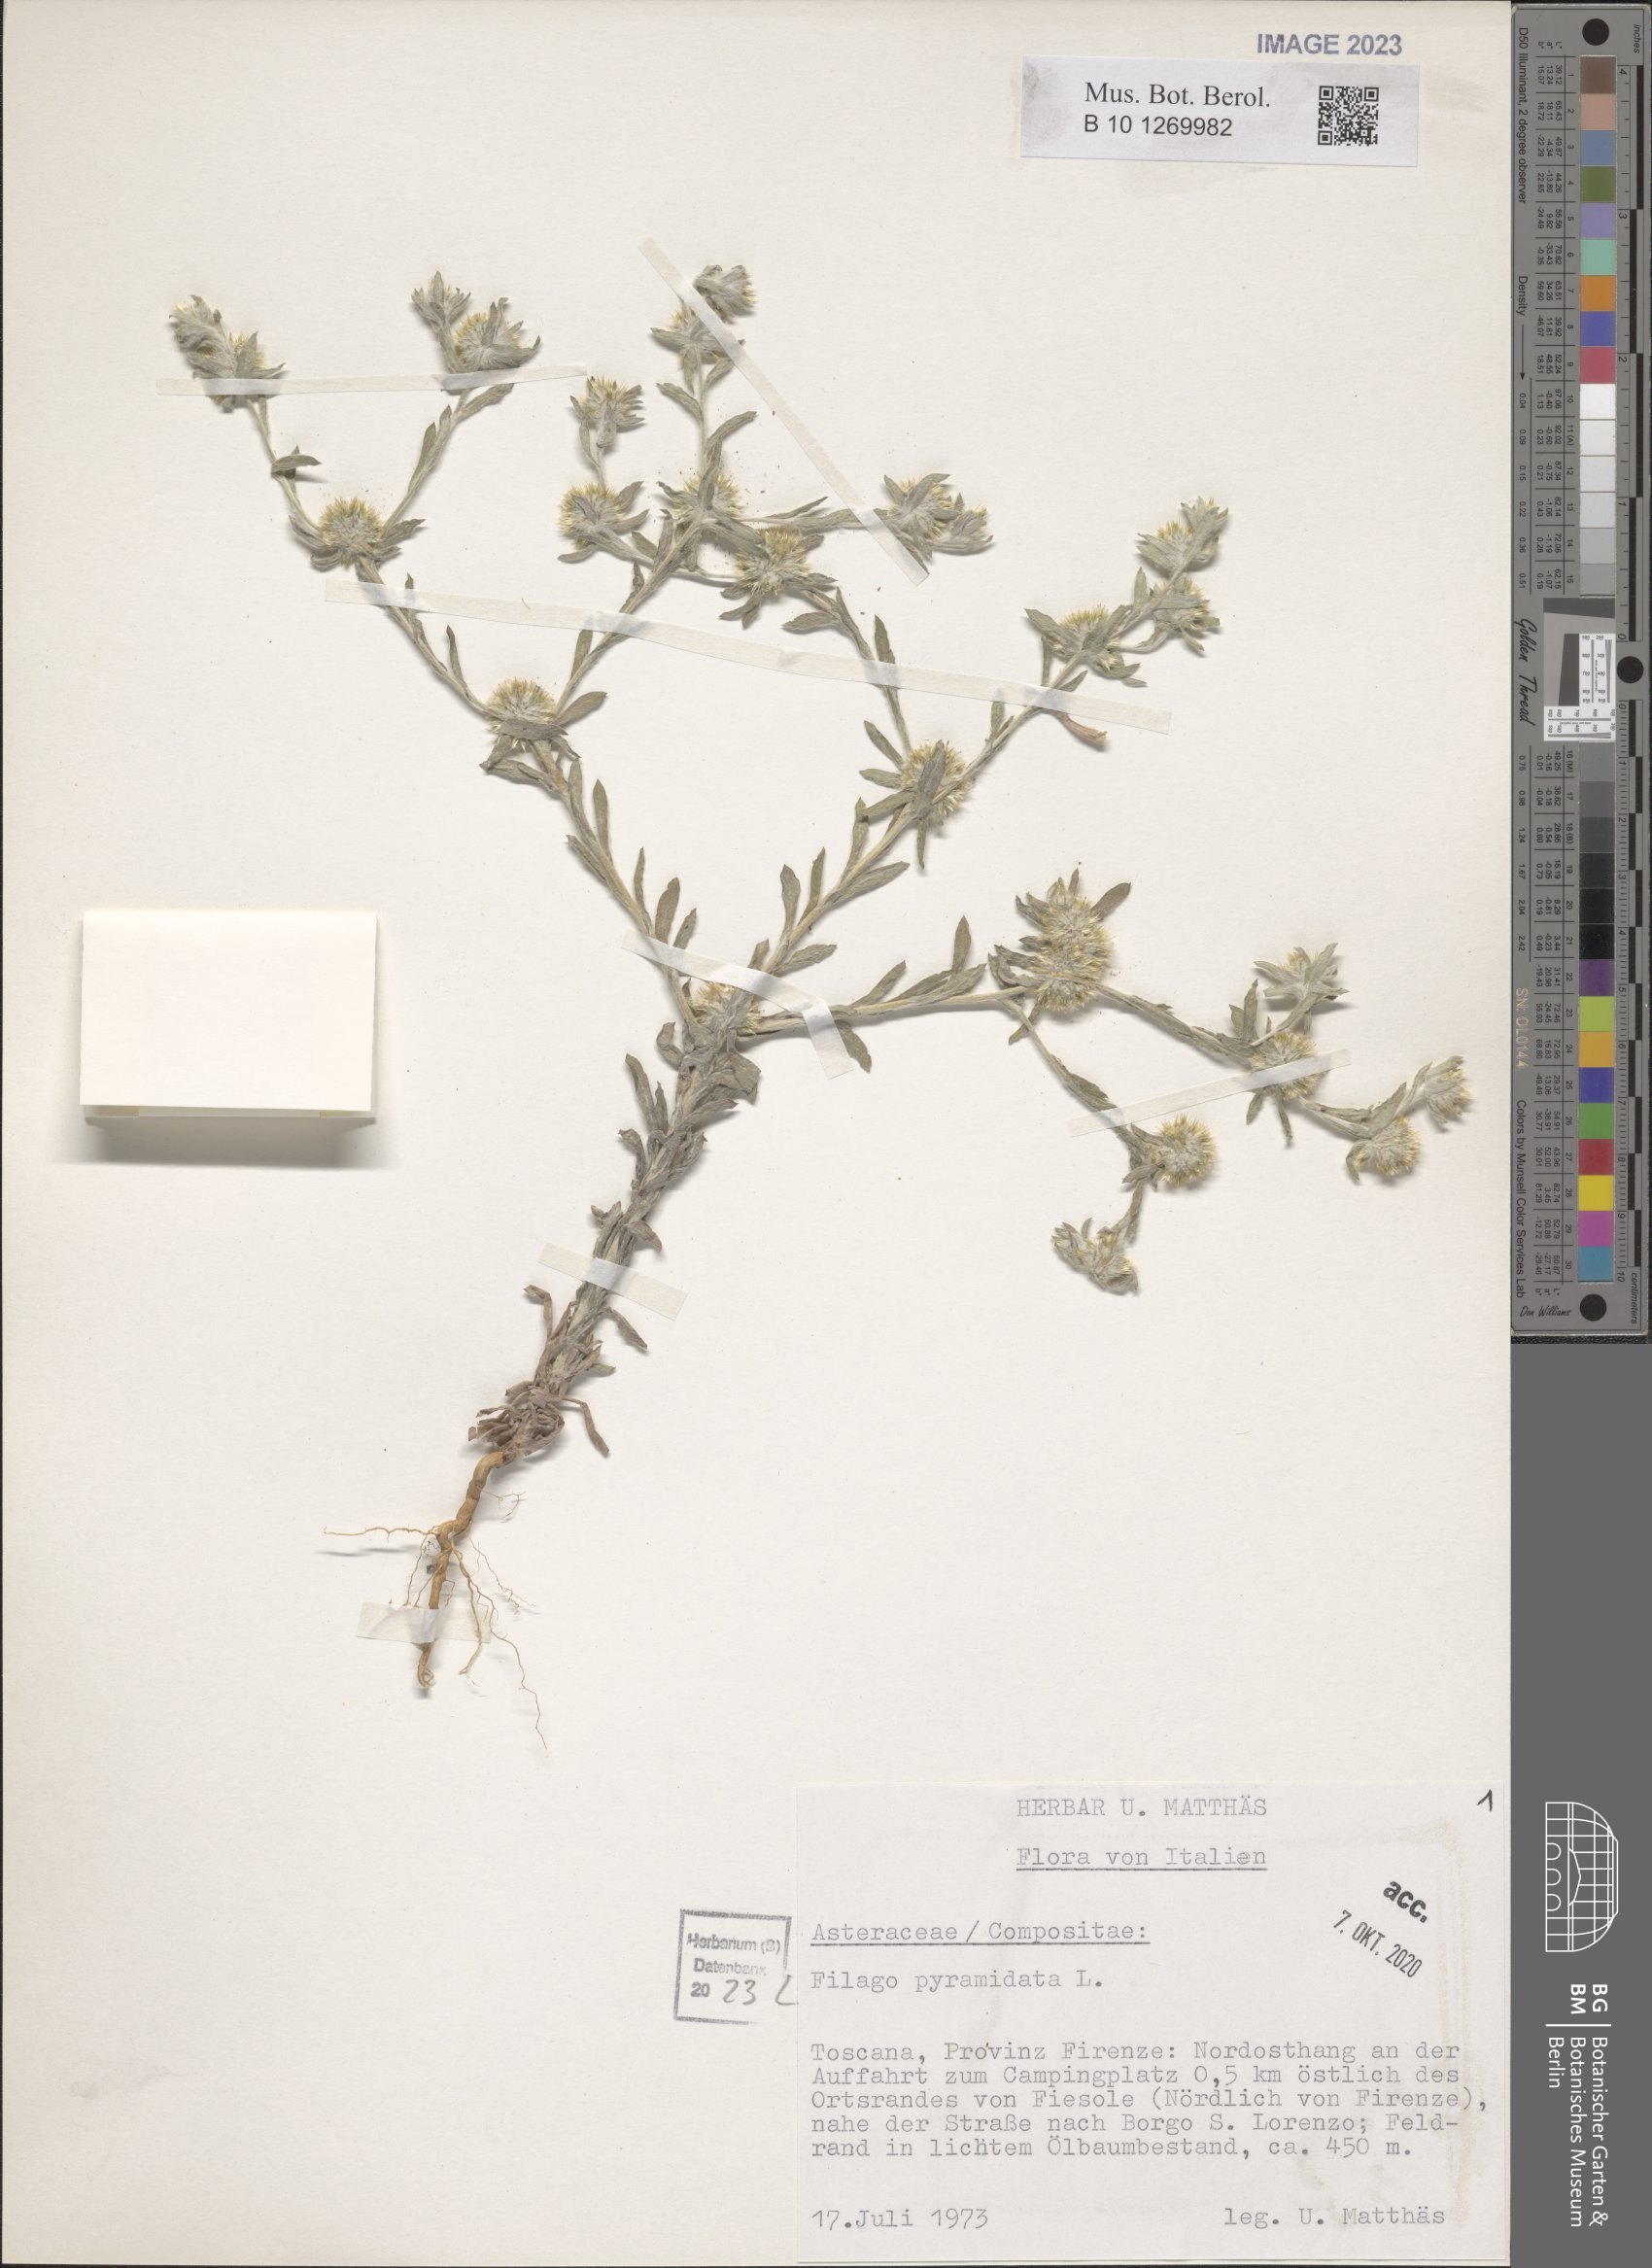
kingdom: Plantae
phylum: Tracheophyta
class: Magnoliopsida
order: Asterales
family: Asteraceae
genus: Filago
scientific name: Filago pyramidata
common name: Broad-leaved cudweed
